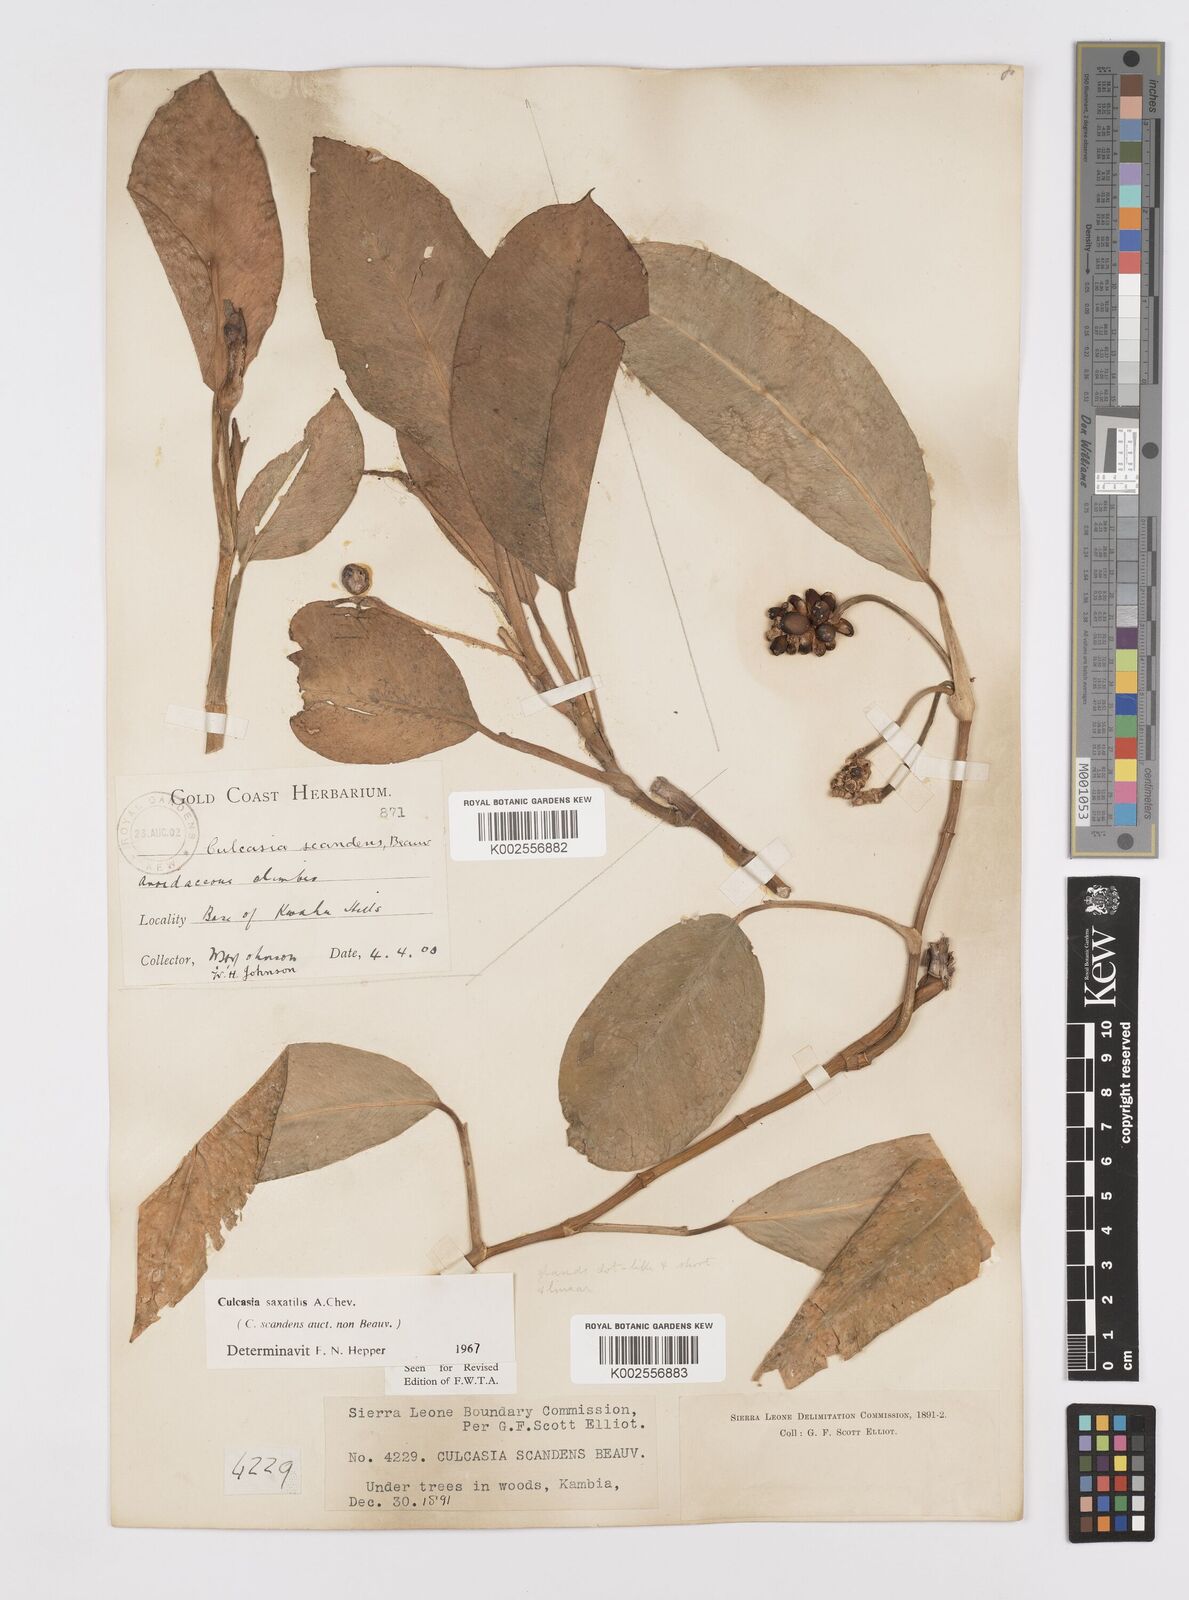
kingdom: Plantae
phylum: Tracheophyta
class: Liliopsida
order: Alismatales
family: Araceae
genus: Culcasia
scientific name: Culcasia scandens
